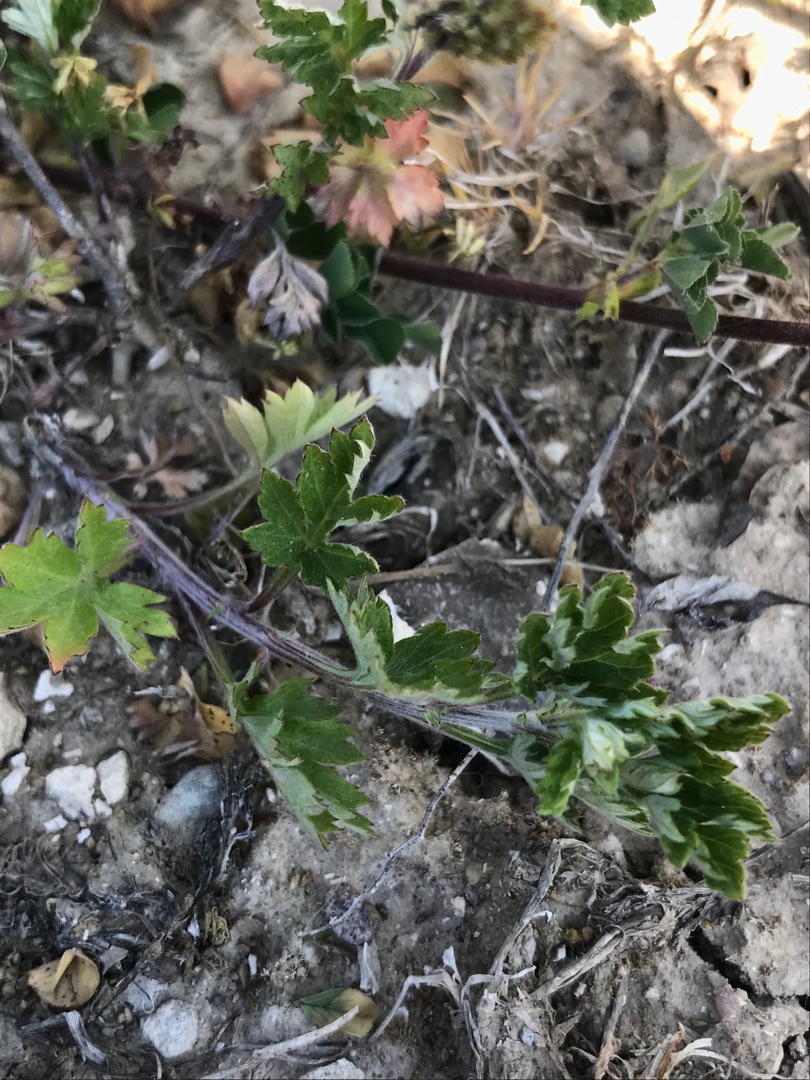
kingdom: Plantae
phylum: Tracheophyta
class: Magnoliopsida
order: Asterales
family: Asteraceae
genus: Artemisia
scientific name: Artemisia vulgaris
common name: Grå-bynke
